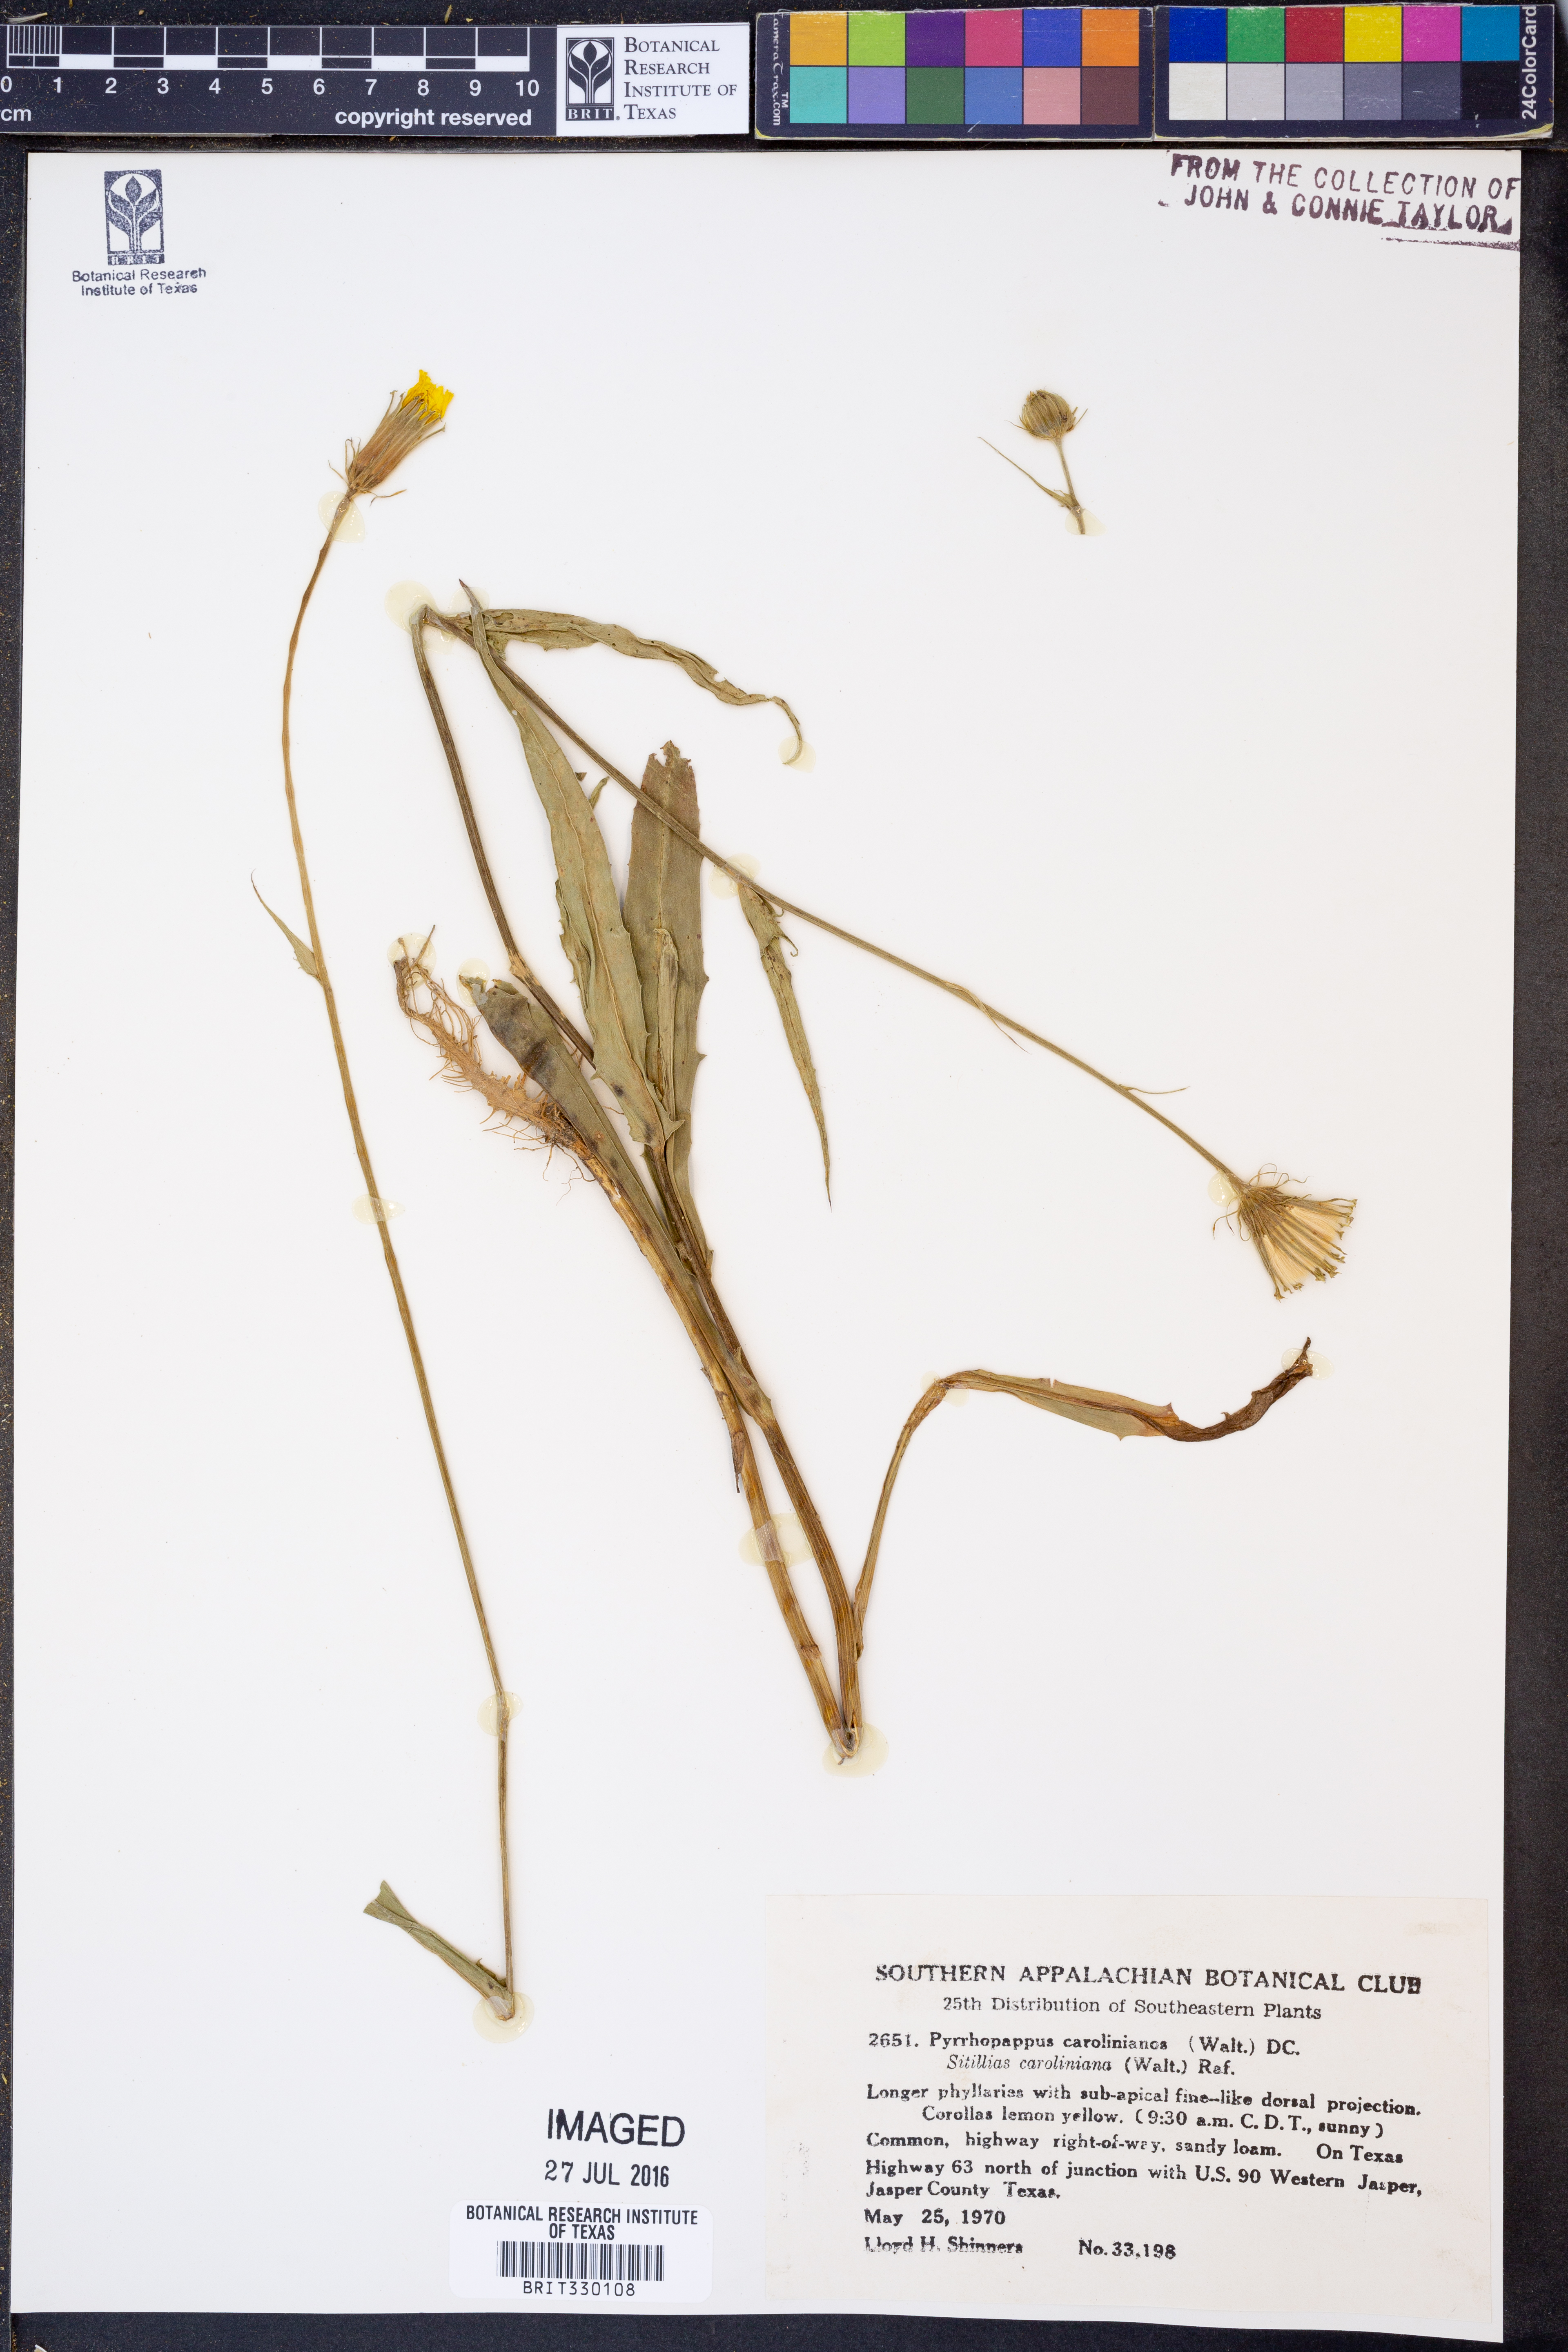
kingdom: Plantae
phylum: Tracheophyta
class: Magnoliopsida
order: Asterales
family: Asteraceae
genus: Pyrrhopappus
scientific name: Pyrrhopappus carolinianus
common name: Carolina desert-chicory
